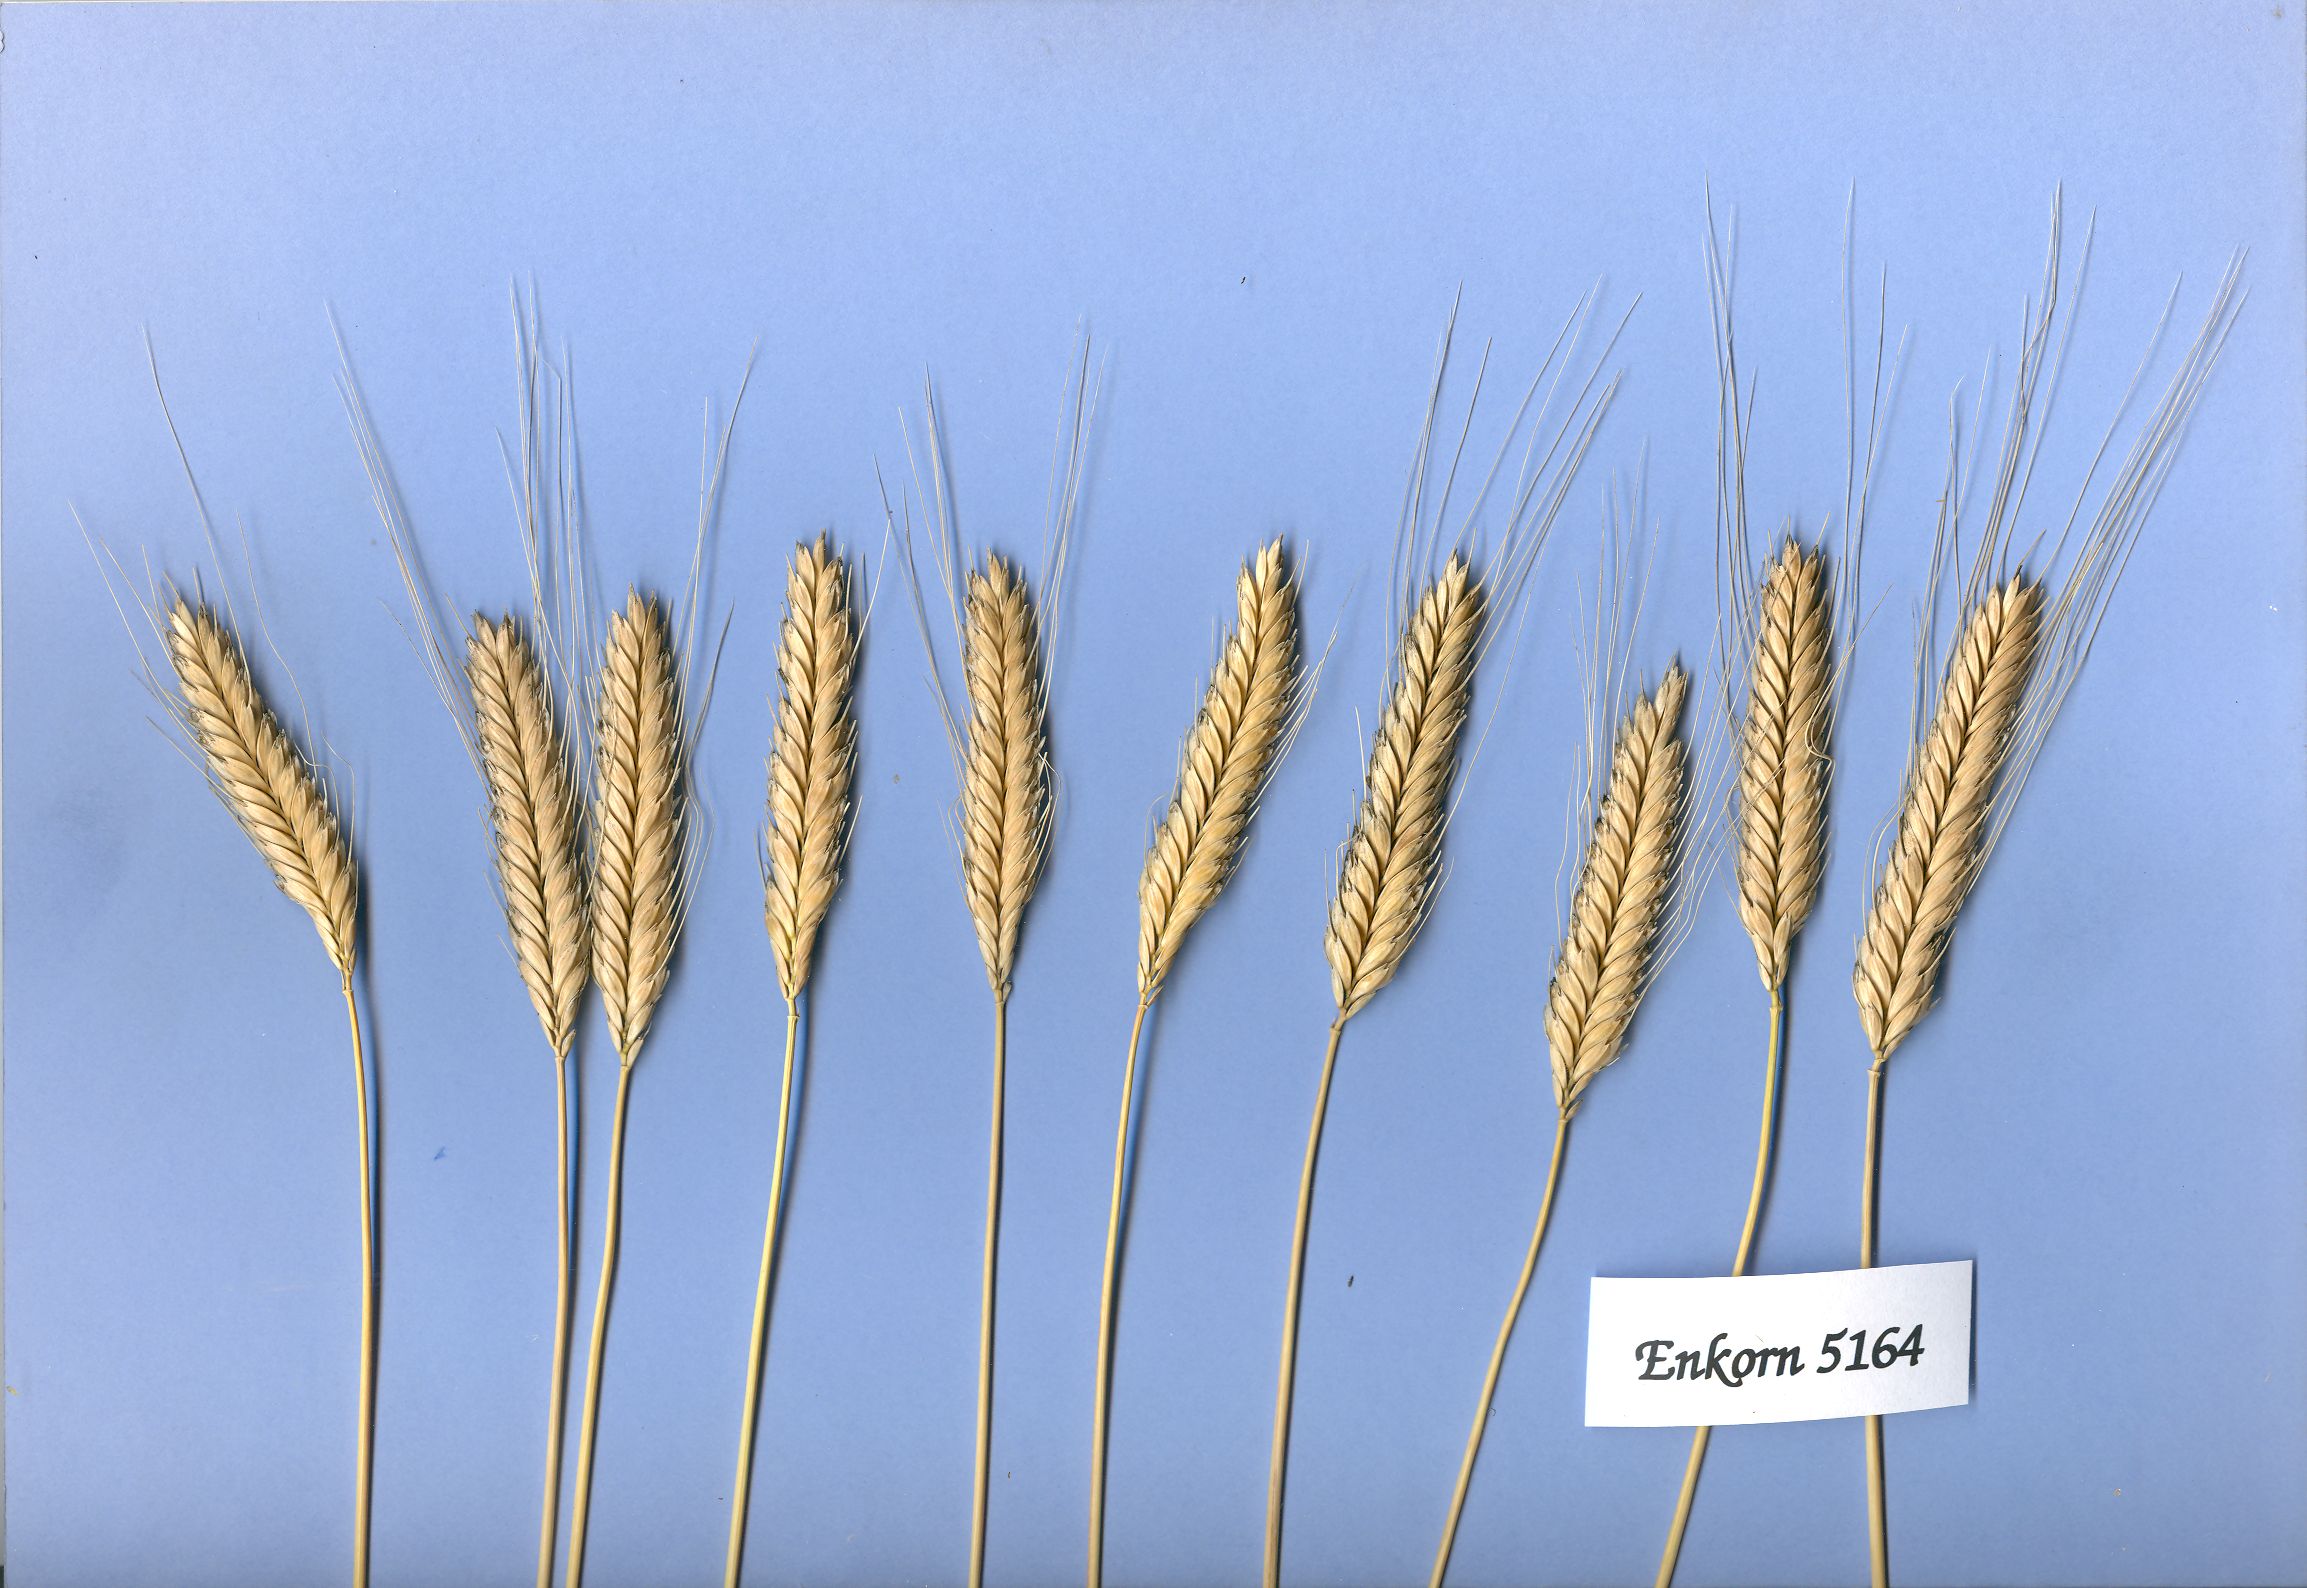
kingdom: Plantae
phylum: Tracheophyta
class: Liliopsida
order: Poales
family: Poaceae
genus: Triticum
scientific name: Triticum monococcum
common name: Einkorn
